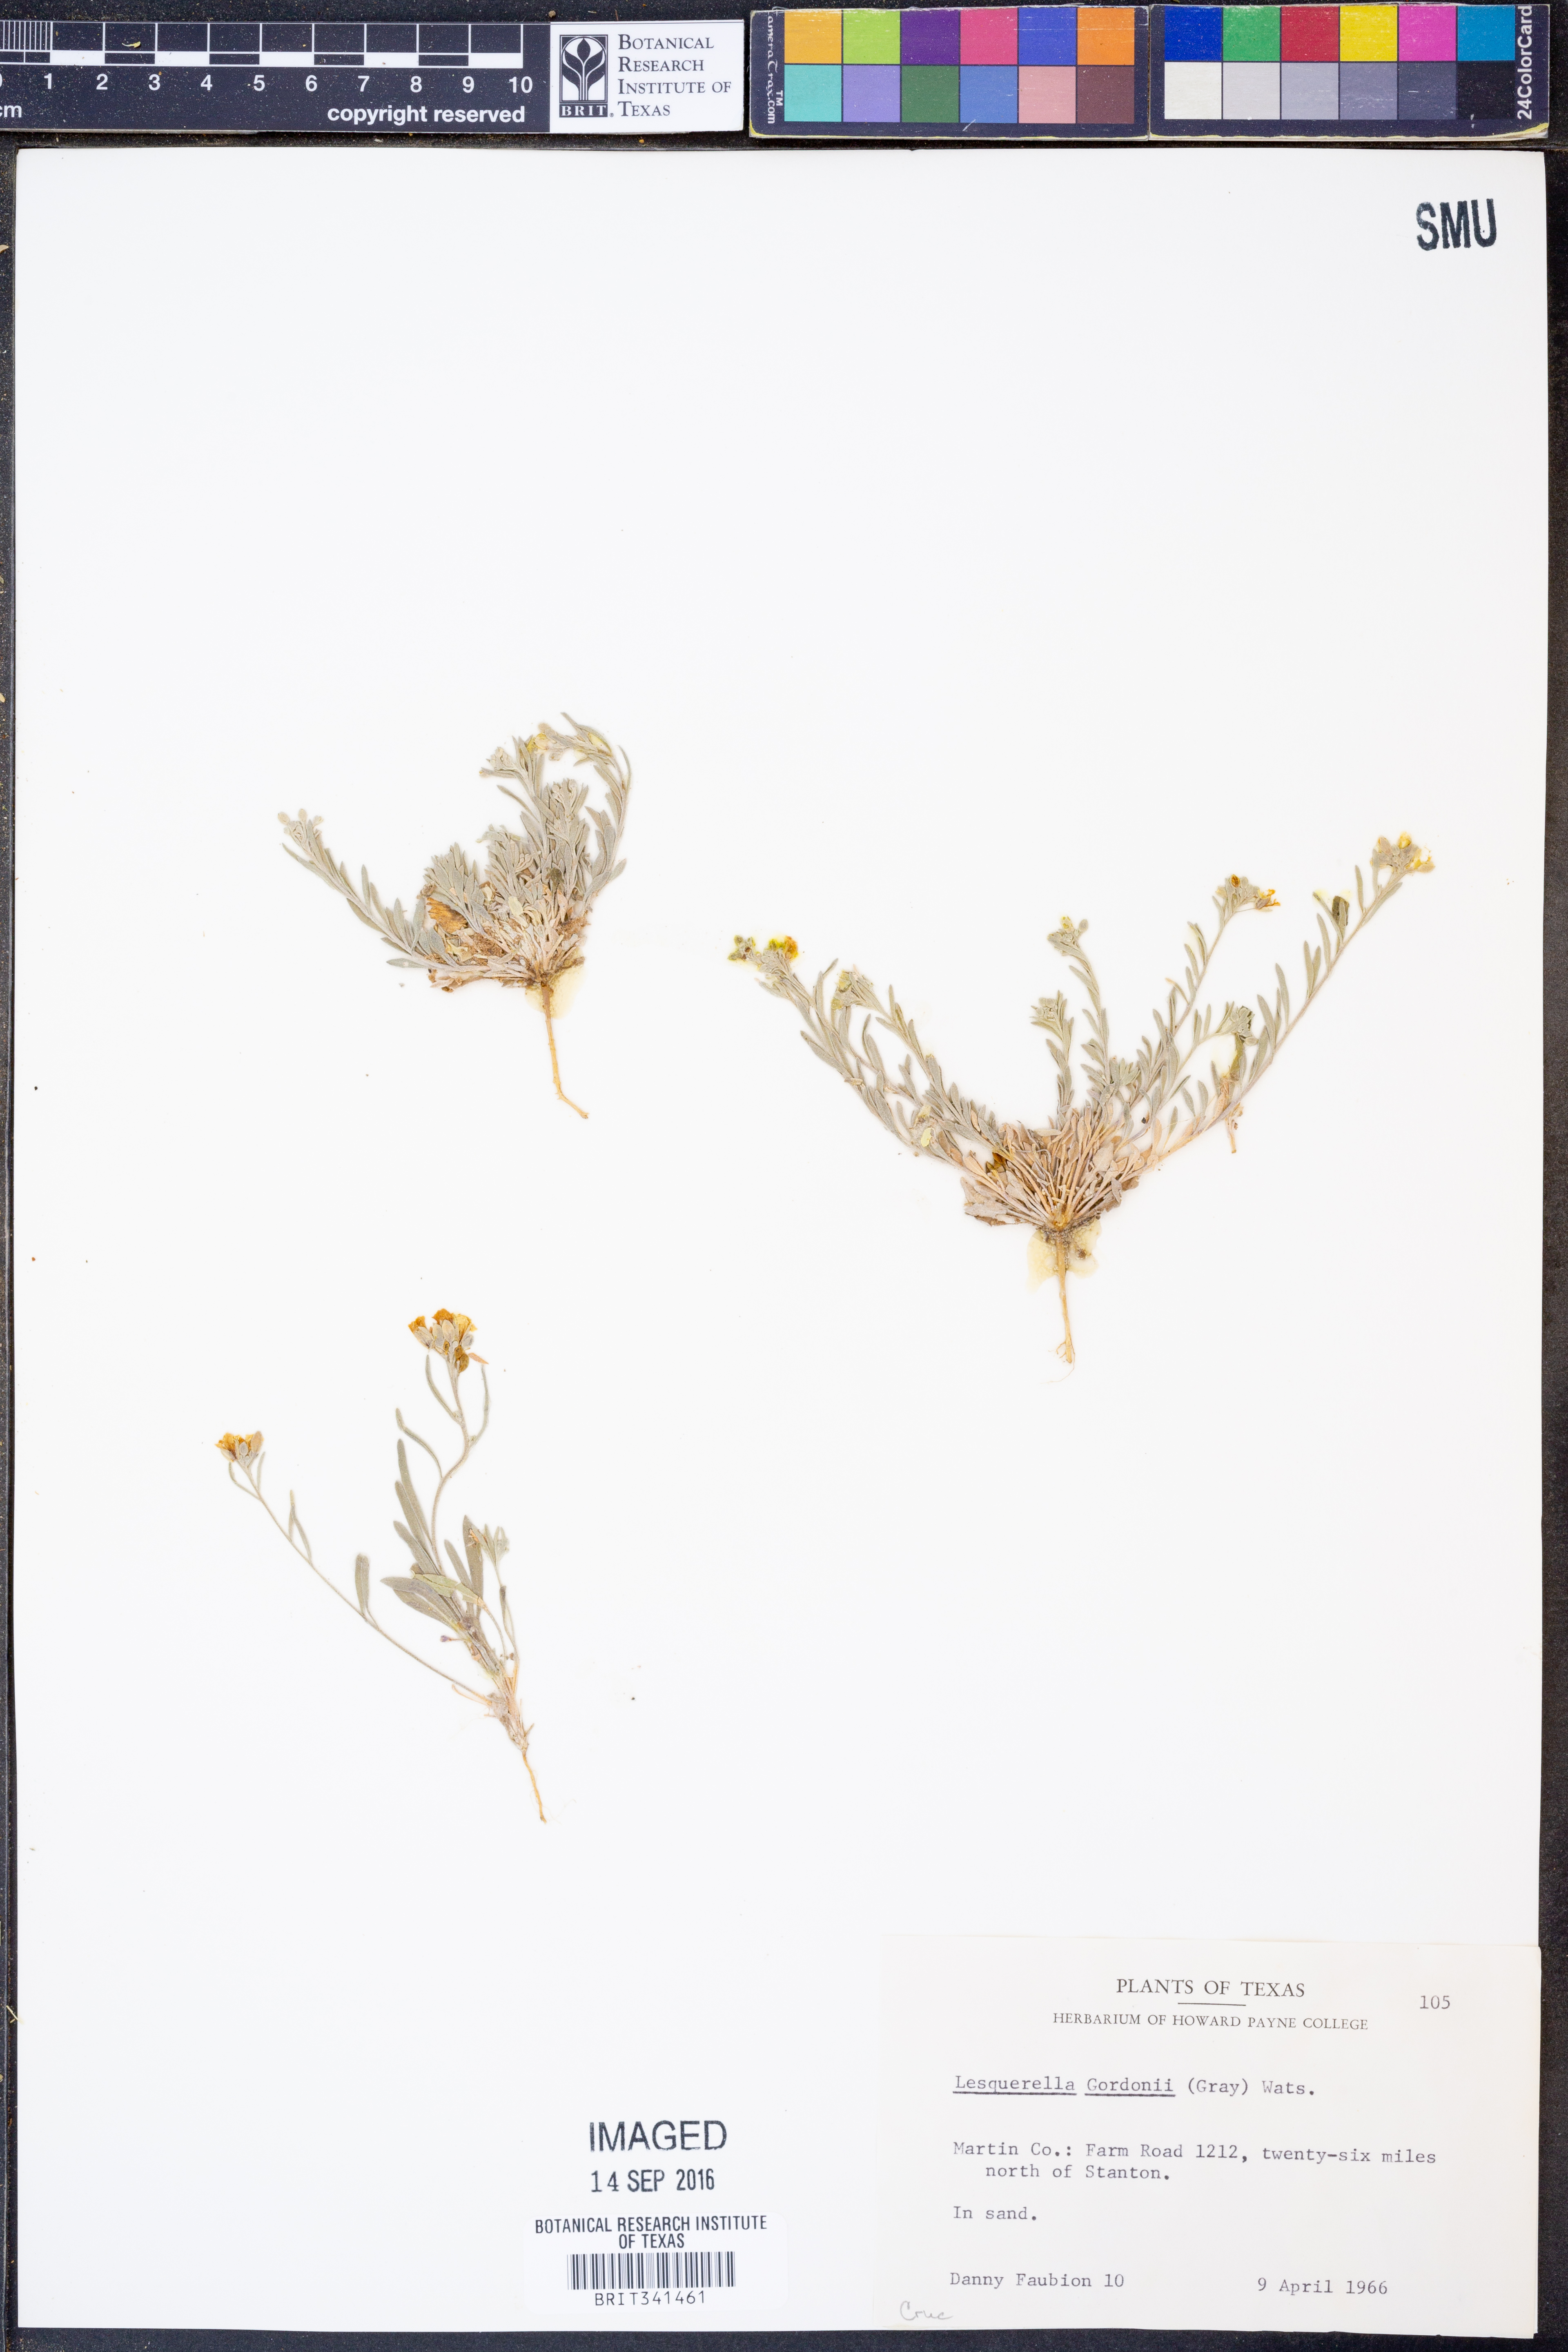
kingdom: Plantae
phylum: Tracheophyta
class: Magnoliopsida
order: Brassicales
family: Brassicaceae
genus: Physaria
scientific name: Physaria gordonii
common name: Gordon's bladderpod
